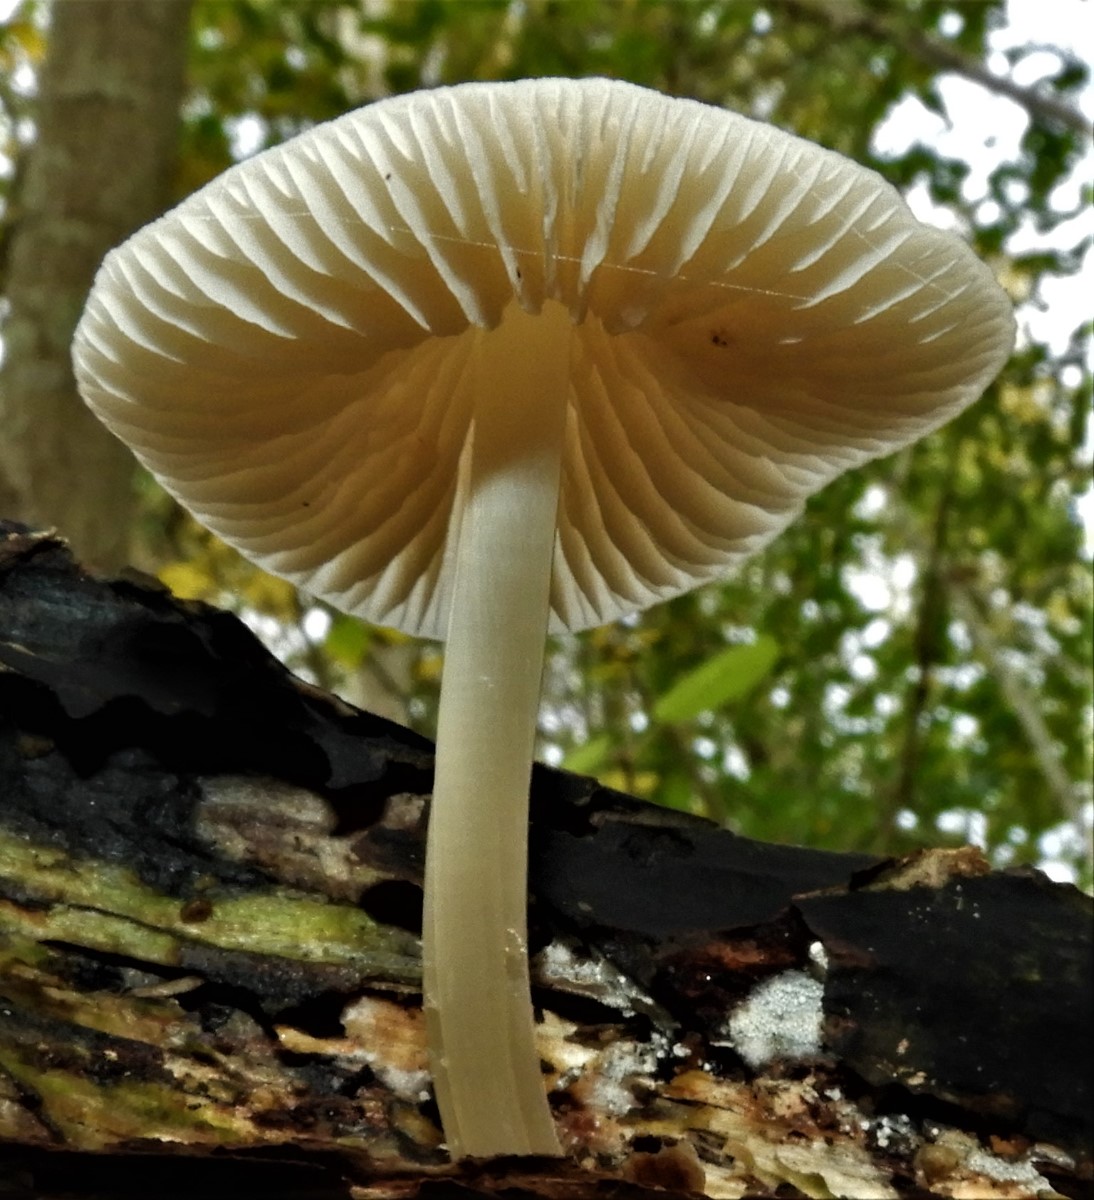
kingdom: Fungi
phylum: Basidiomycota
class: Agaricomycetes
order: Agaricales
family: Mycenaceae
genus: Mycena
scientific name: Mycena galericulata
